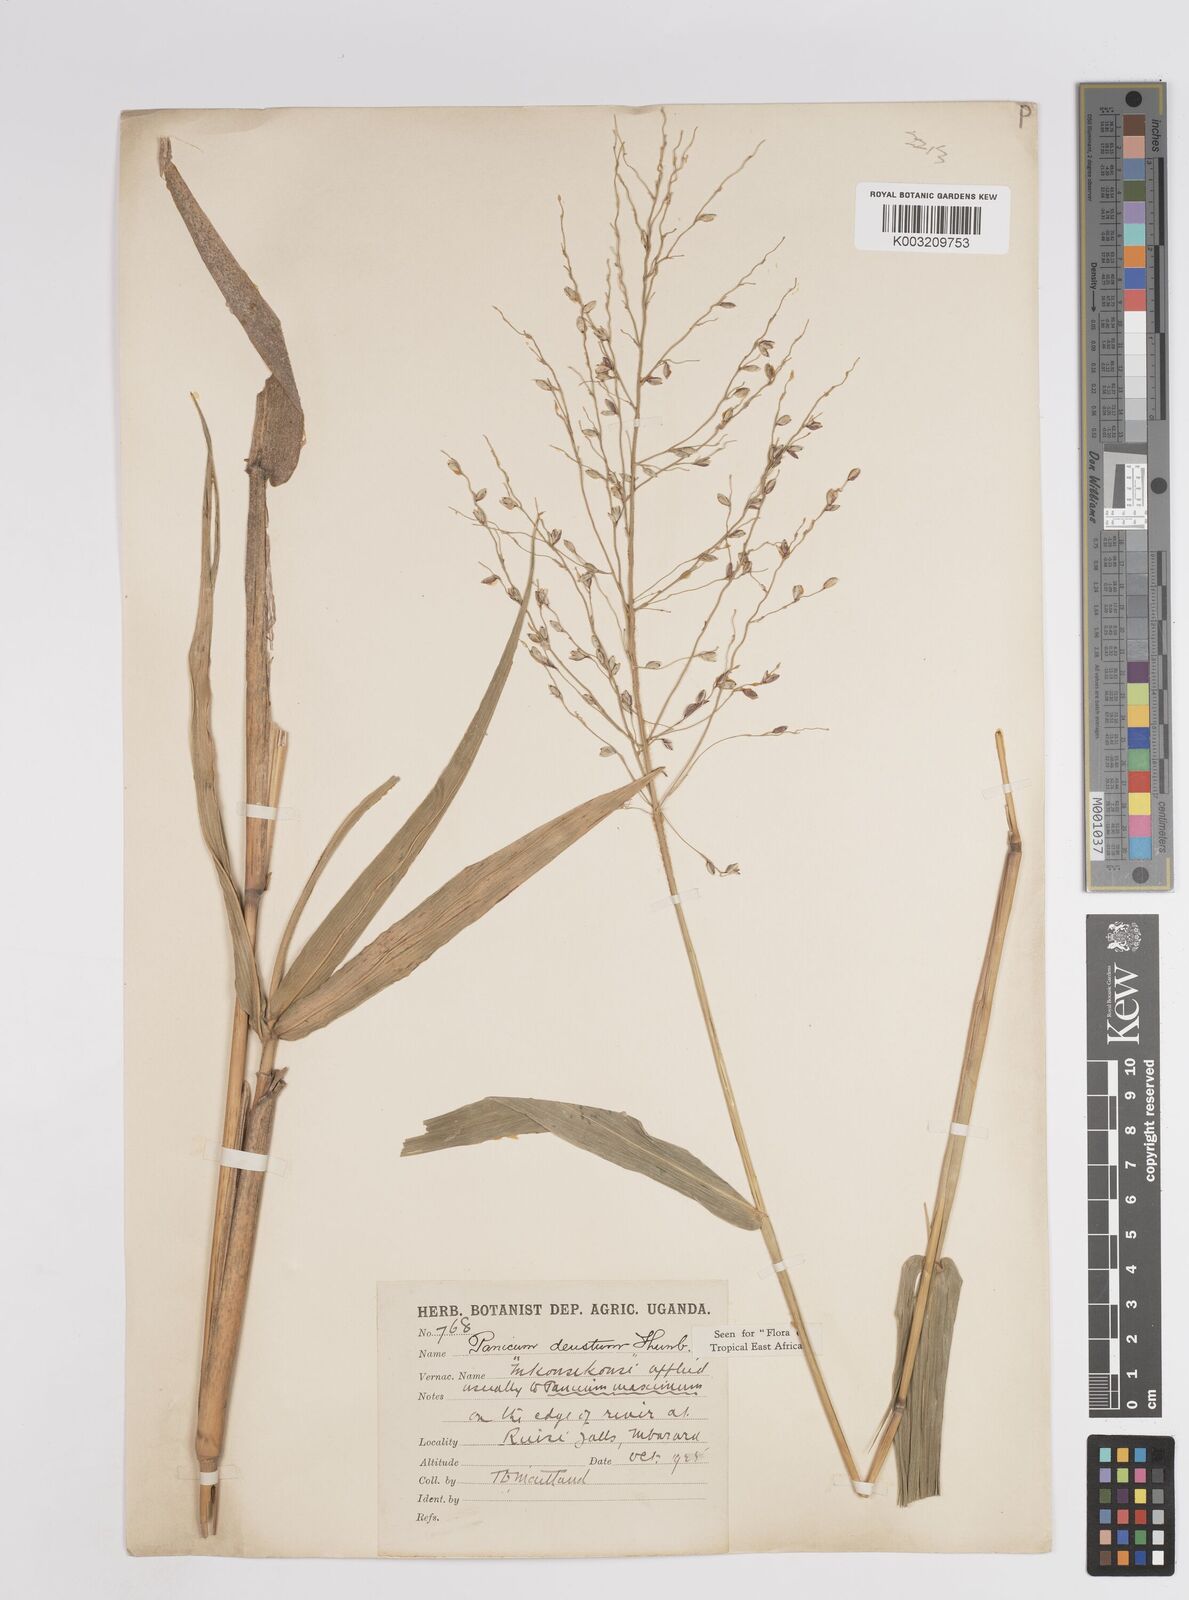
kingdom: Plantae
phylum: Tracheophyta
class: Liliopsida
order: Poales
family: Poaceae
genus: Panicum
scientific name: Panicum
